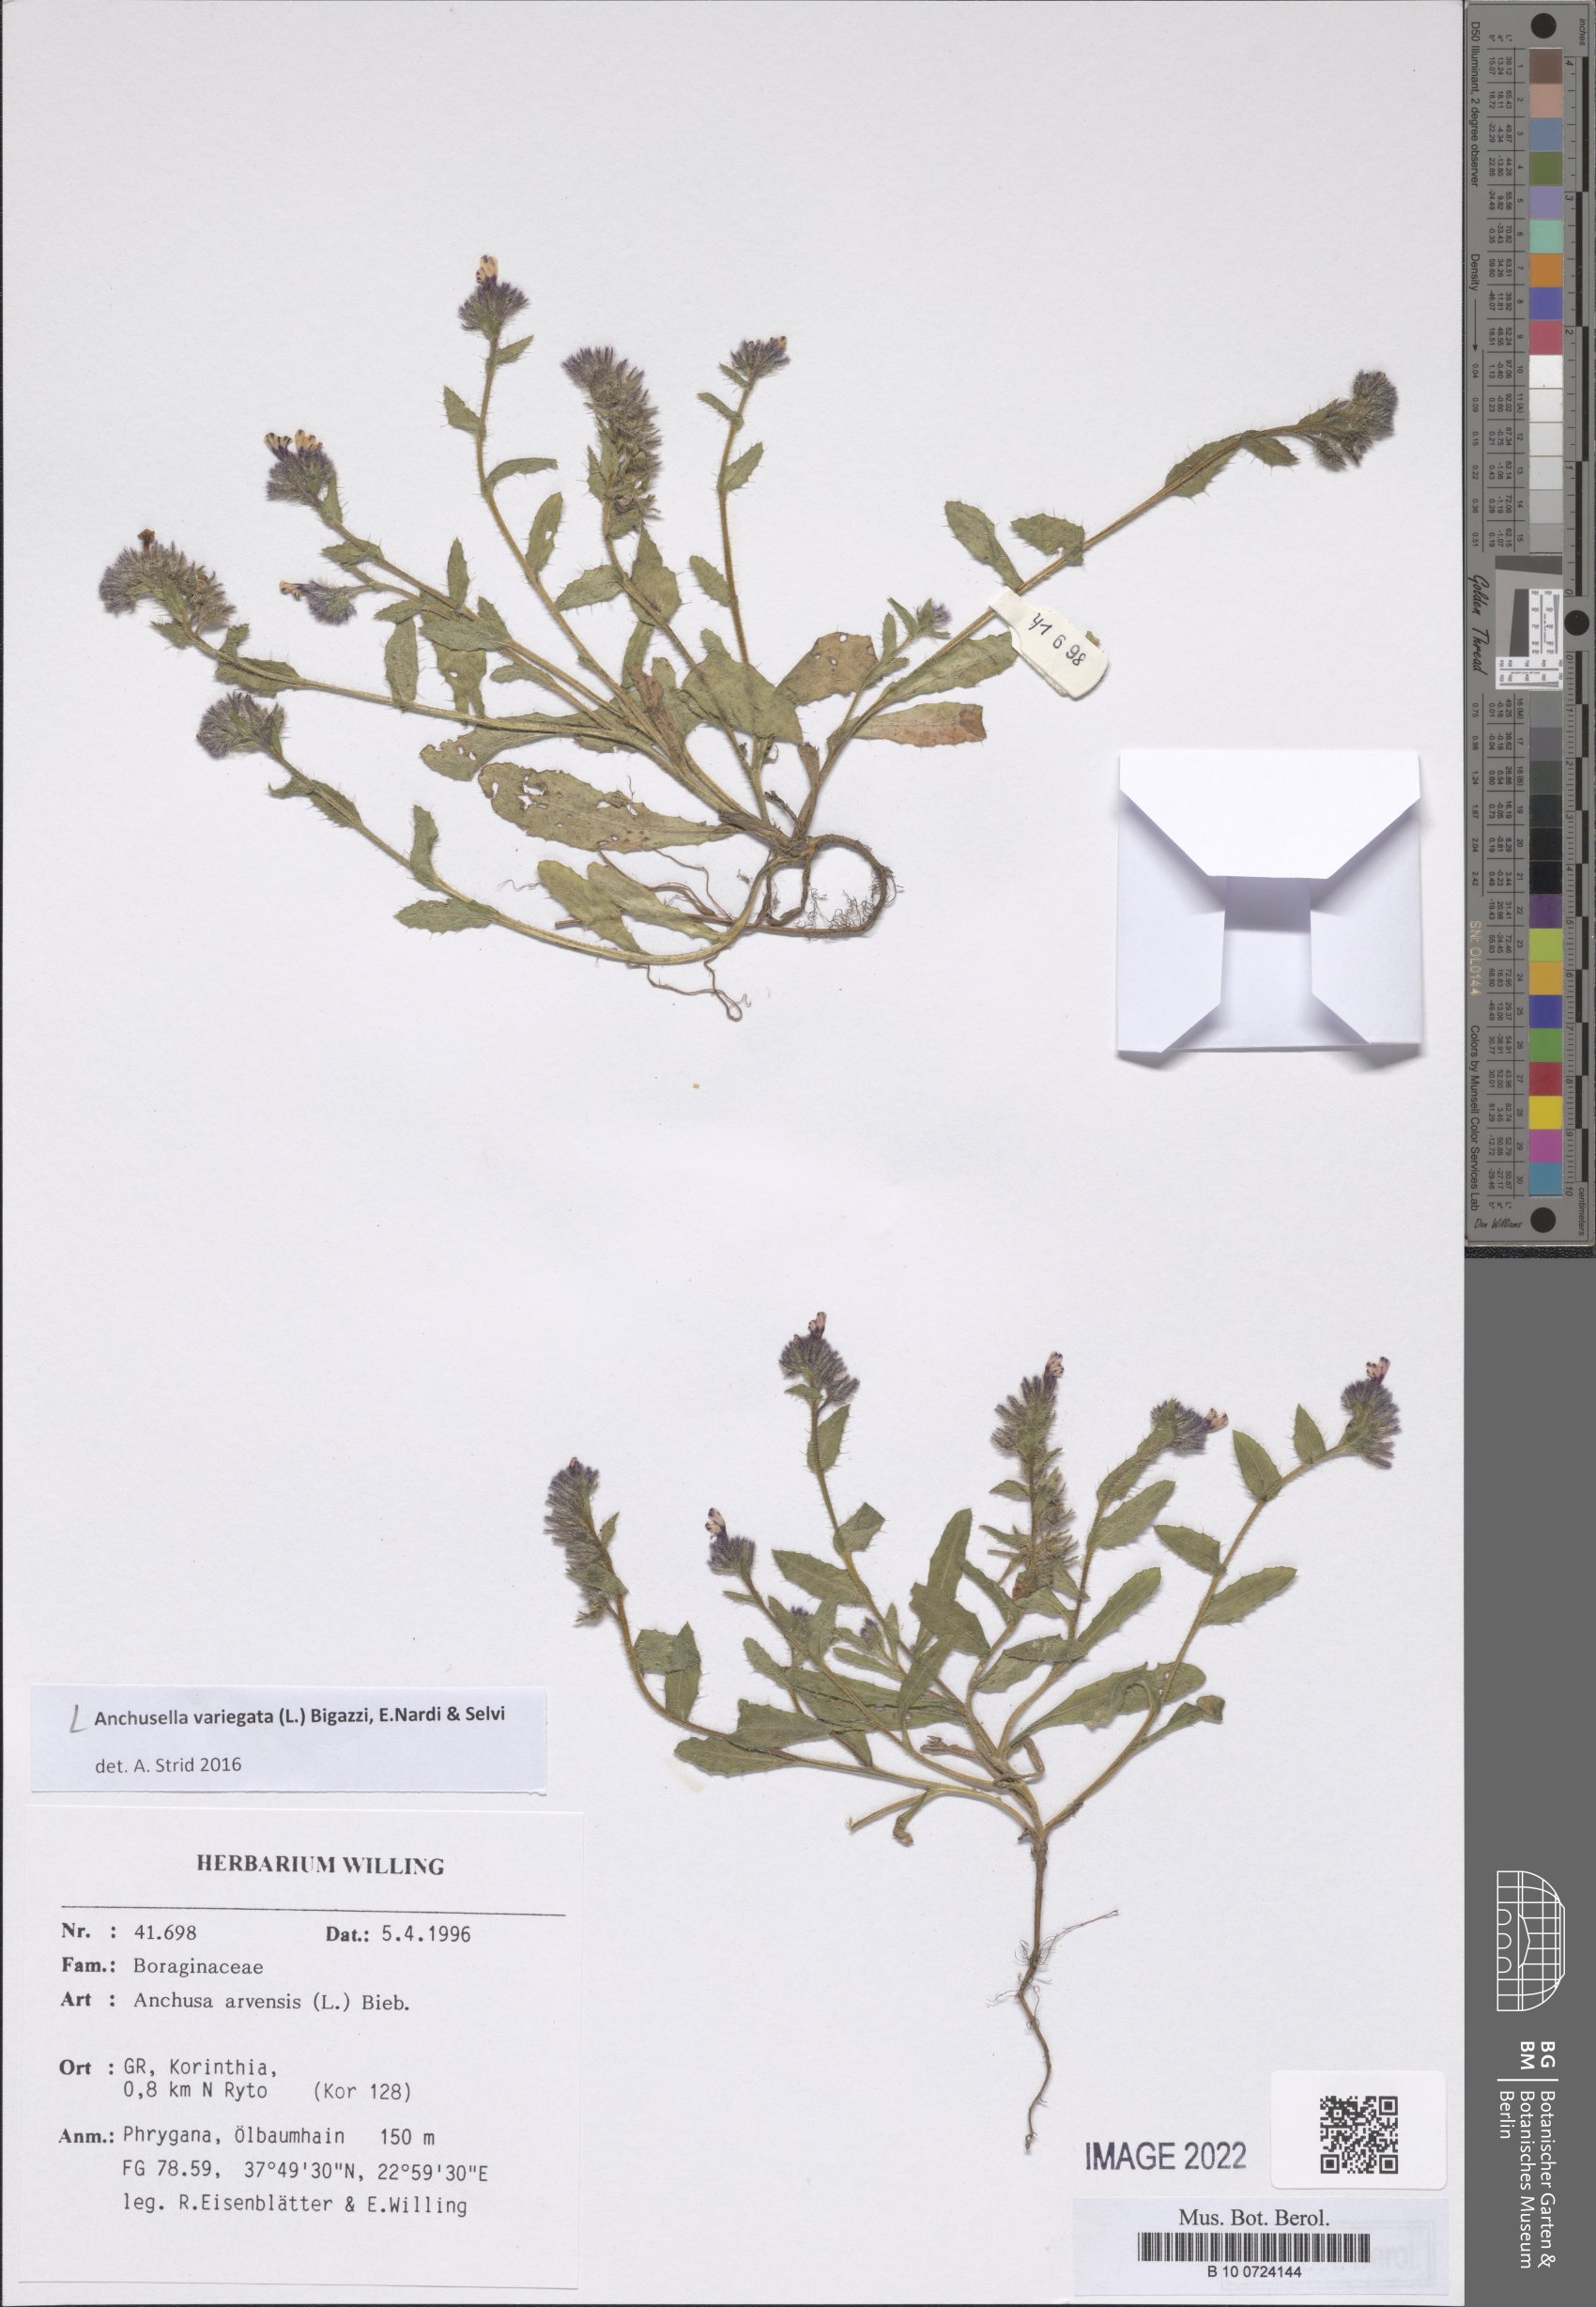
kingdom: Plantae
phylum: Tracheophyta
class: Magnoliopsida
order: Boraginales
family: Boraginaceae
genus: Anchusella
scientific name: Anchusella variegata
